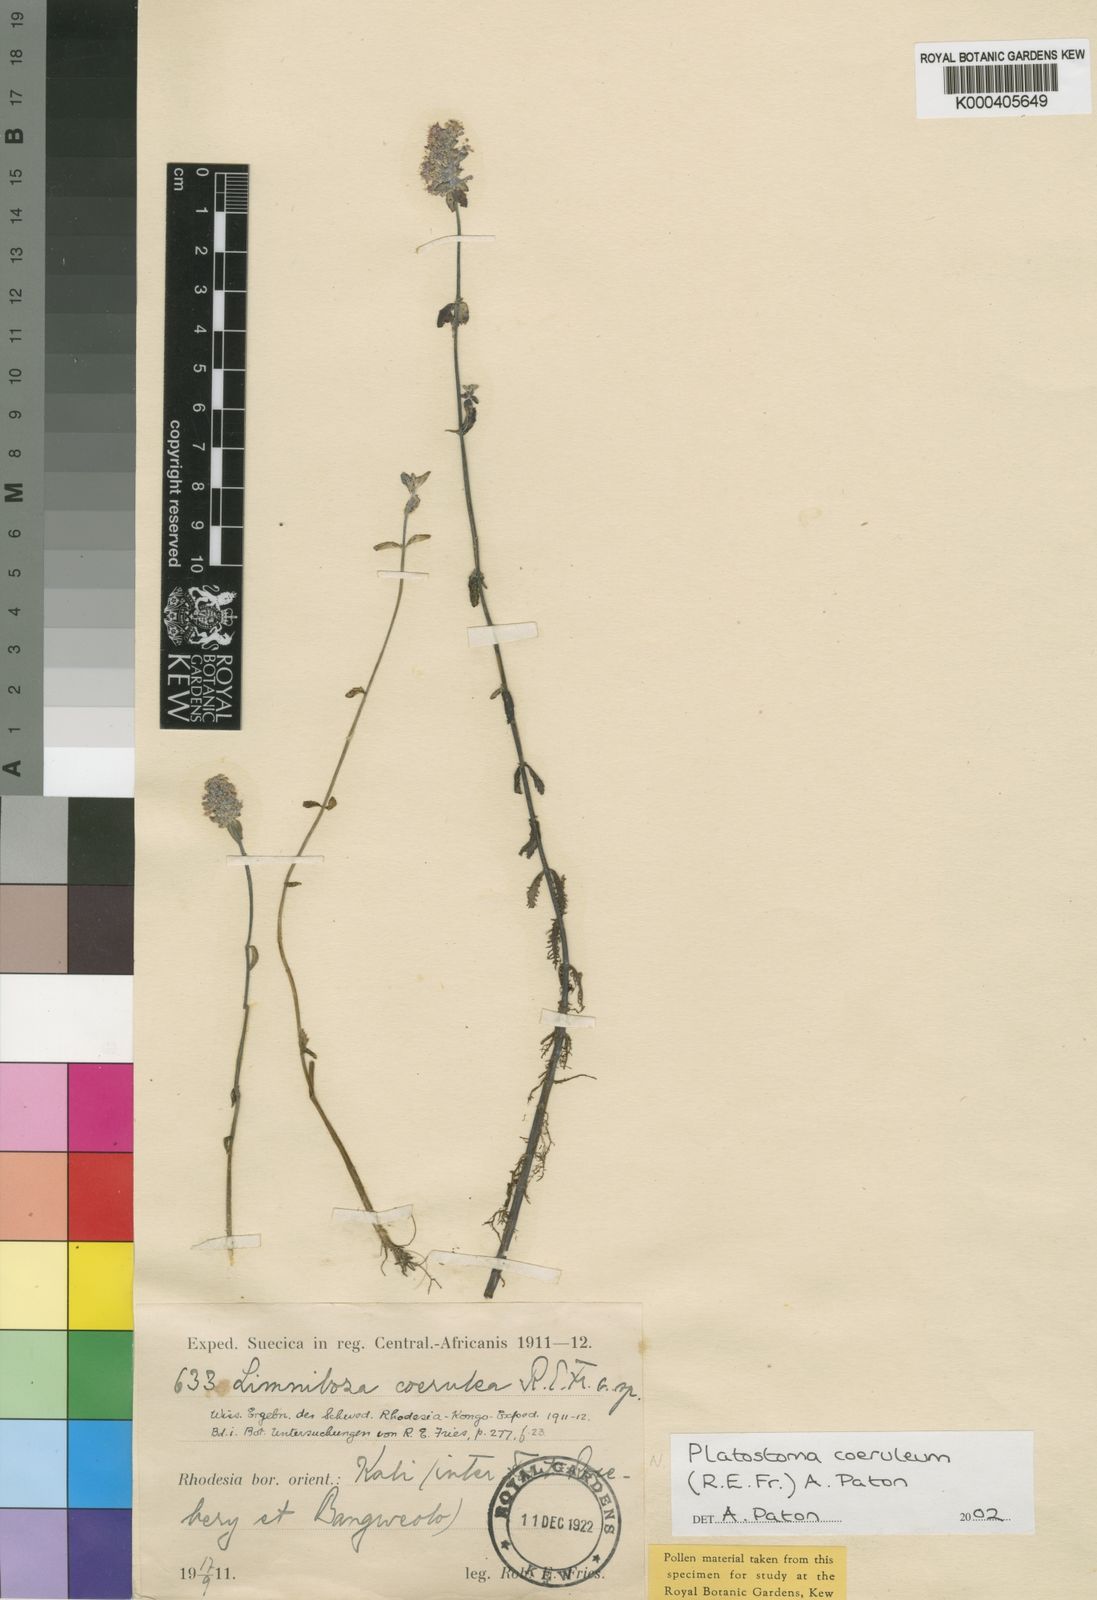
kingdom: Plantae
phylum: Tracheophyta
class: Magnoliopsida
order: Lamiales
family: Lamiaceae
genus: Platostoma
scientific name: Platostoma coeruleum
